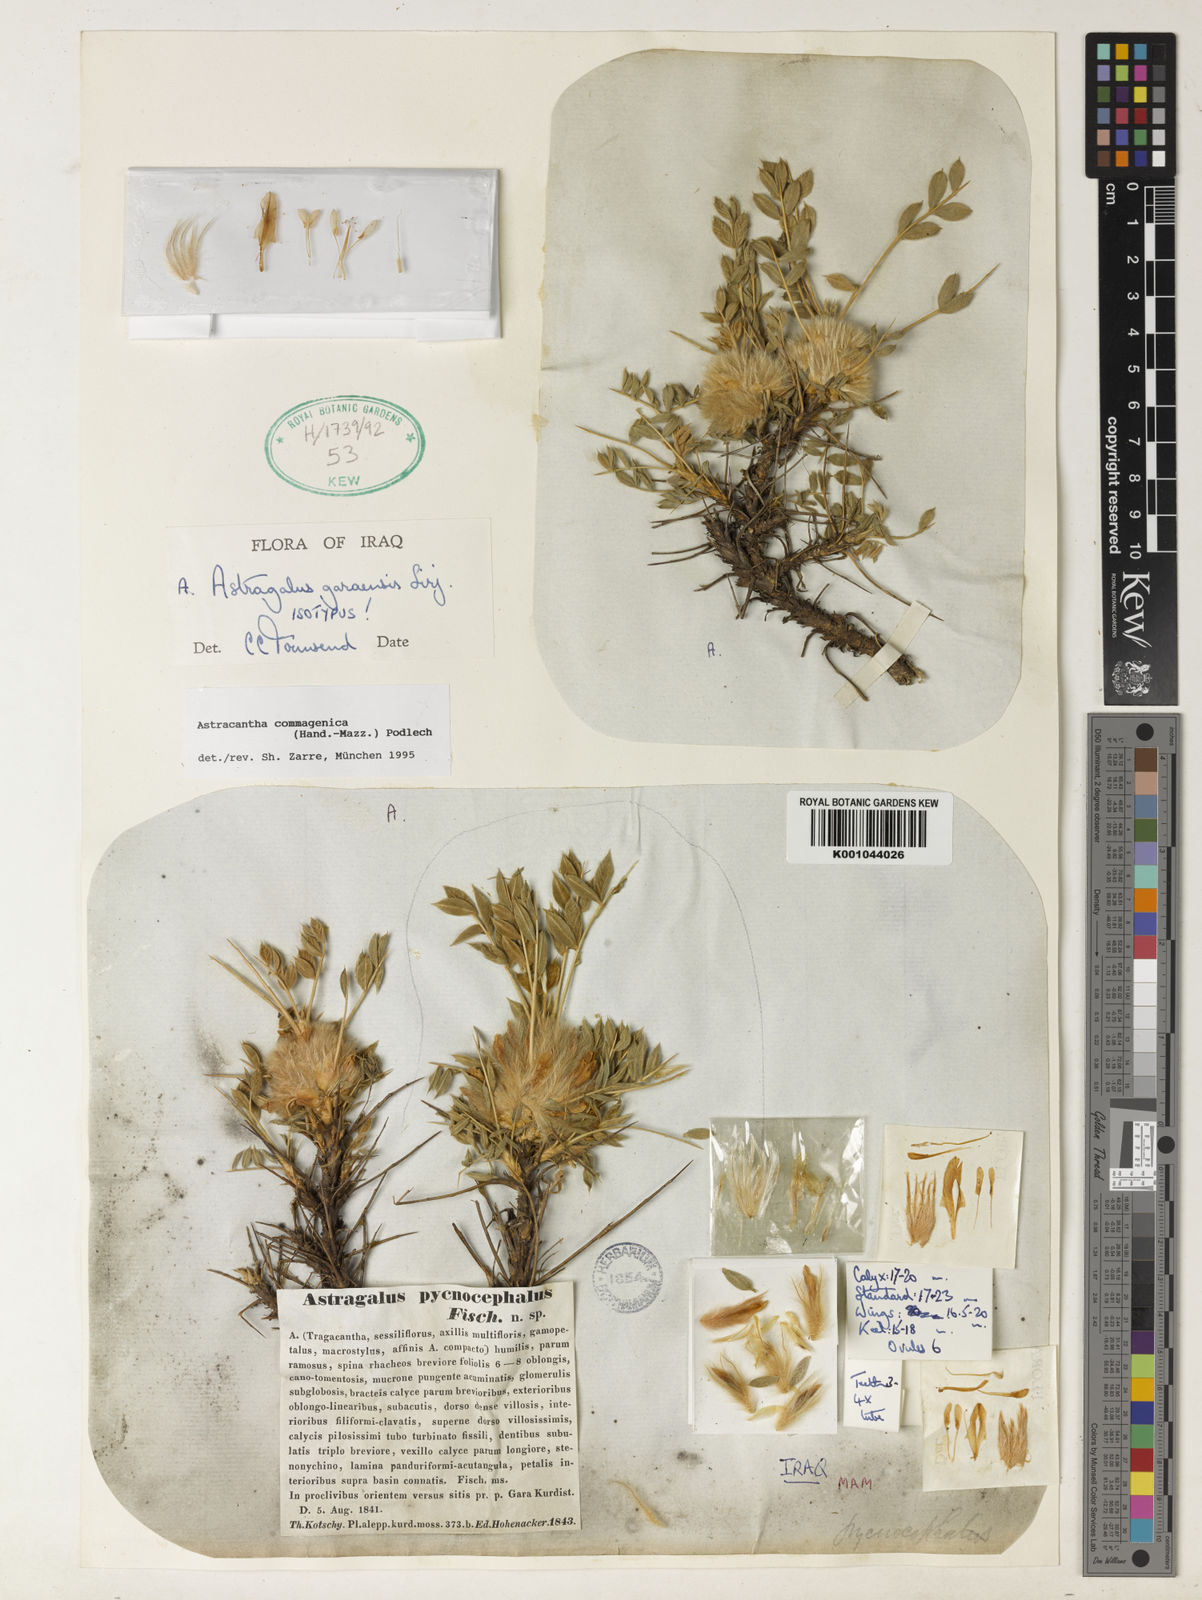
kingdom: Plantae
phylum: Tracheophyta
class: Magnoliopsida
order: Fabales
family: Fabaceae
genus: Astragalus
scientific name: Astragalus
